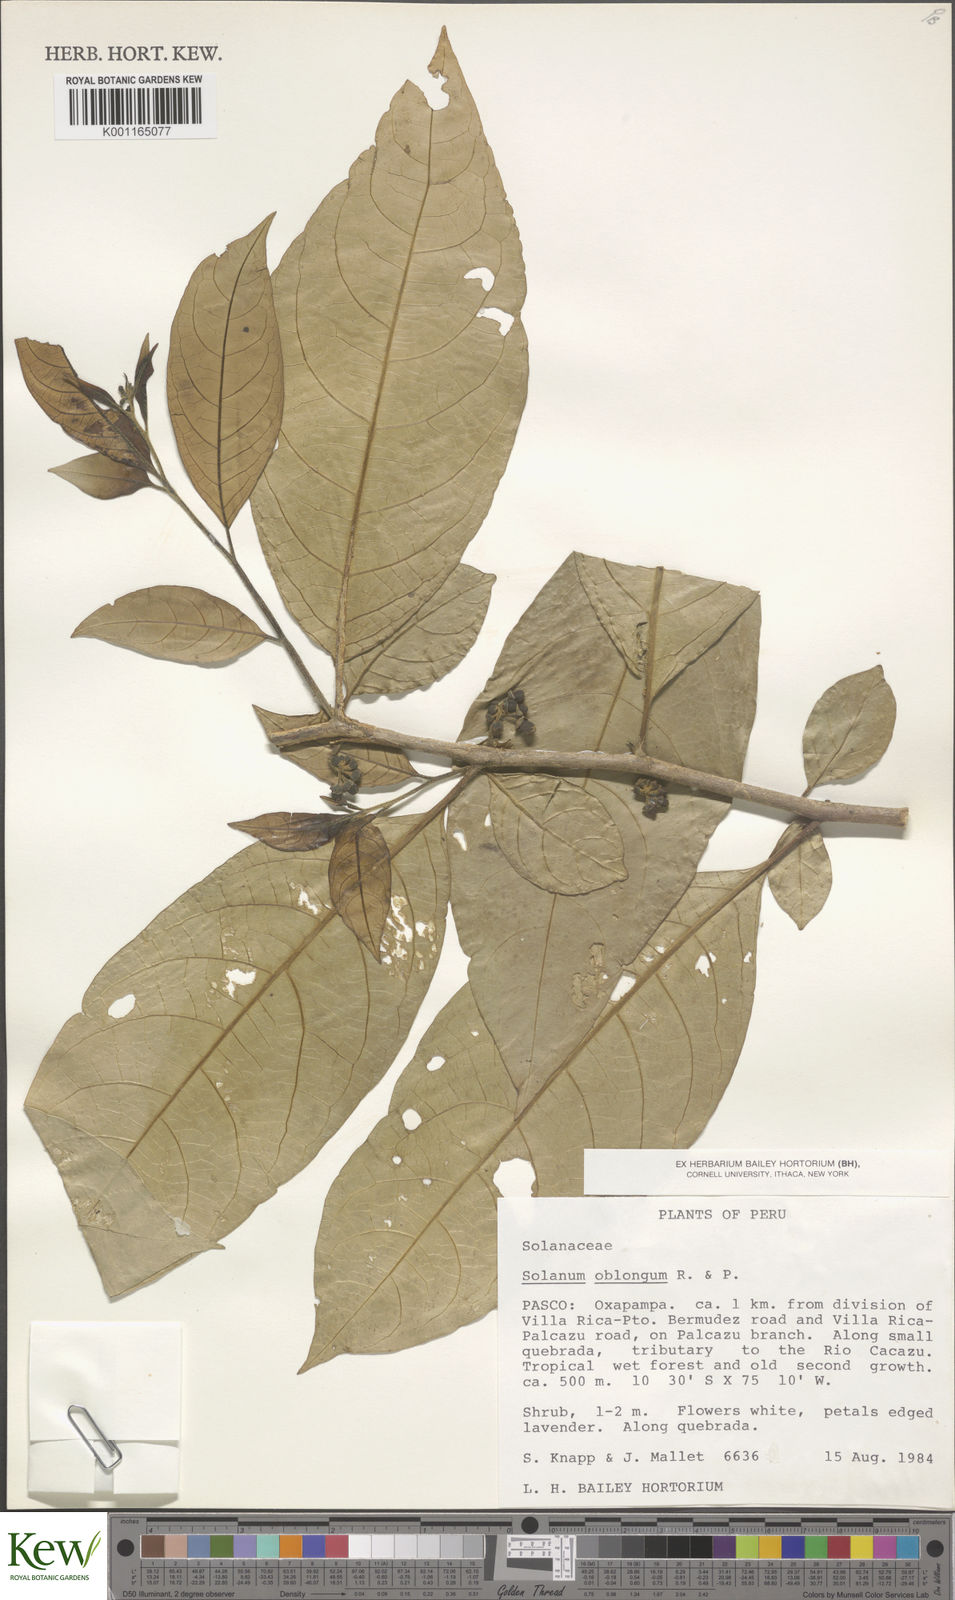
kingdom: Plantae
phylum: Tracheophyta
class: Magnoliopsida
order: Solanales
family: Solanaceae
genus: Solanum
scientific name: Solanum oblongum
